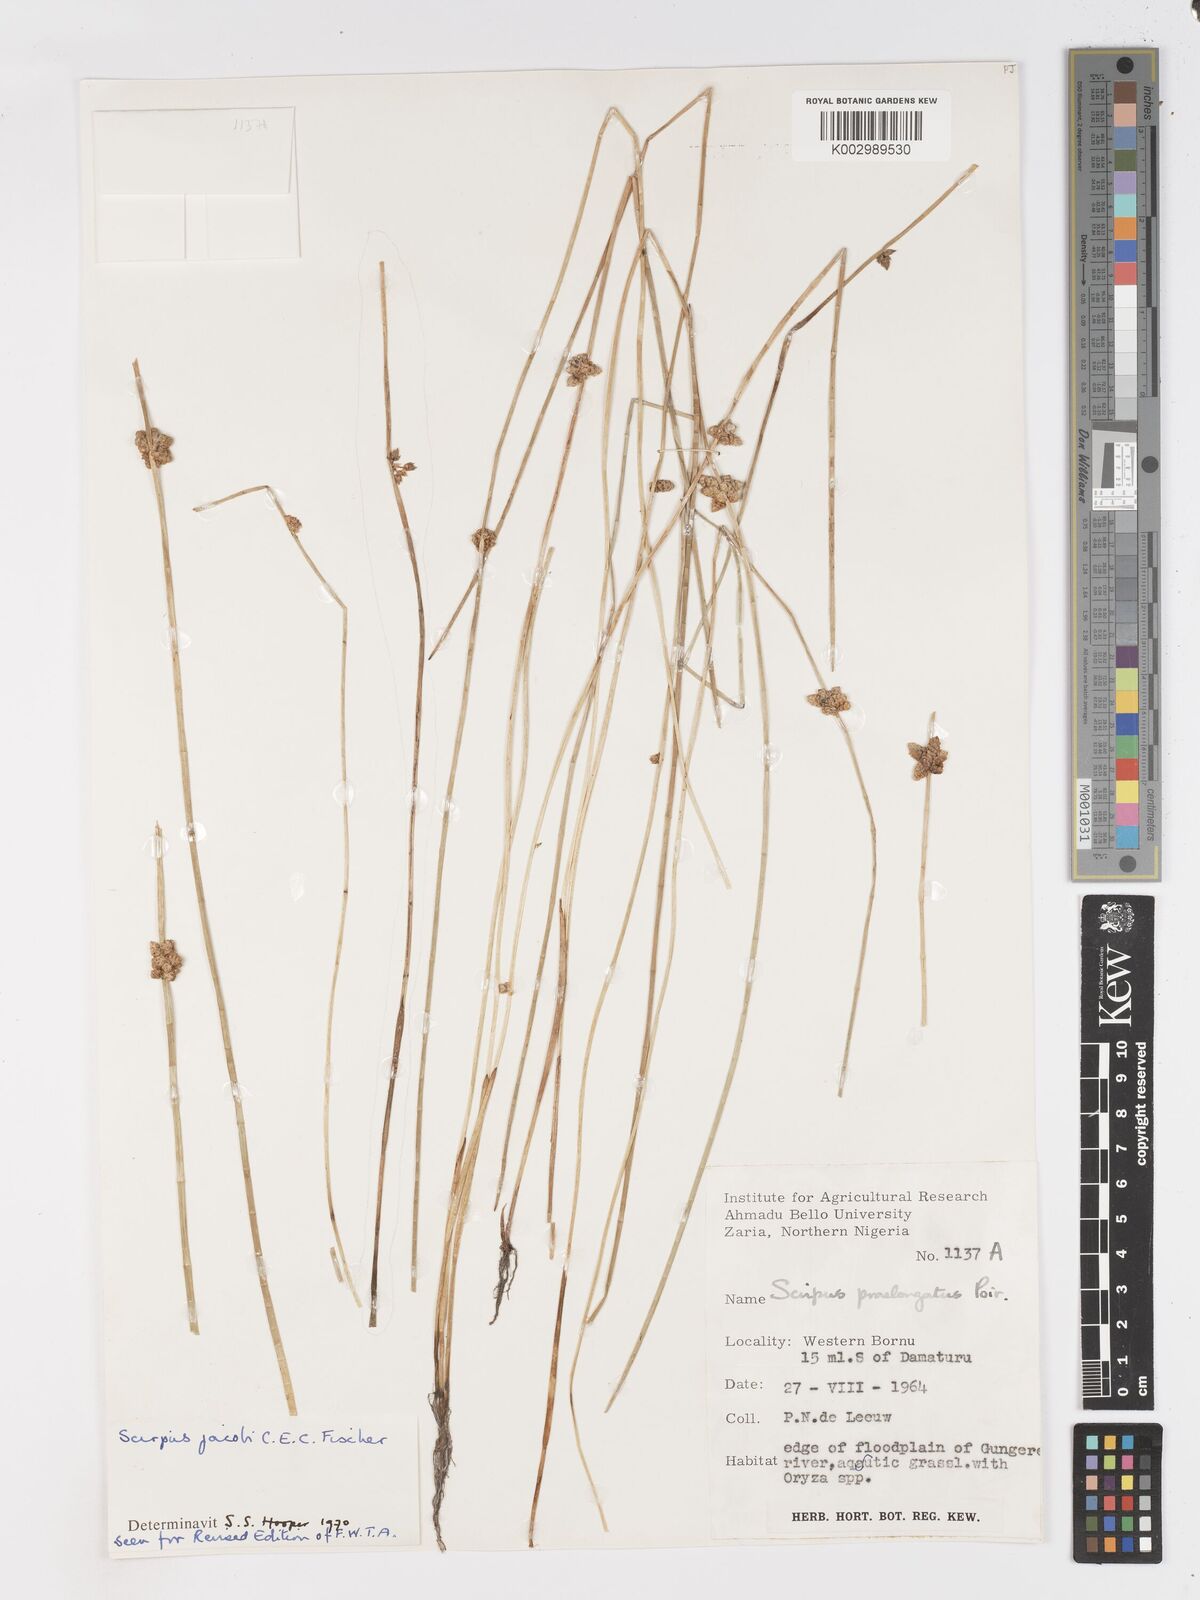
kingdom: Plantae
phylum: Tracheophyta
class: Liliopsida
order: Poales
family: Cyperaceae
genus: Schoenoplectiella
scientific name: Schoenoplectiella praelongata
